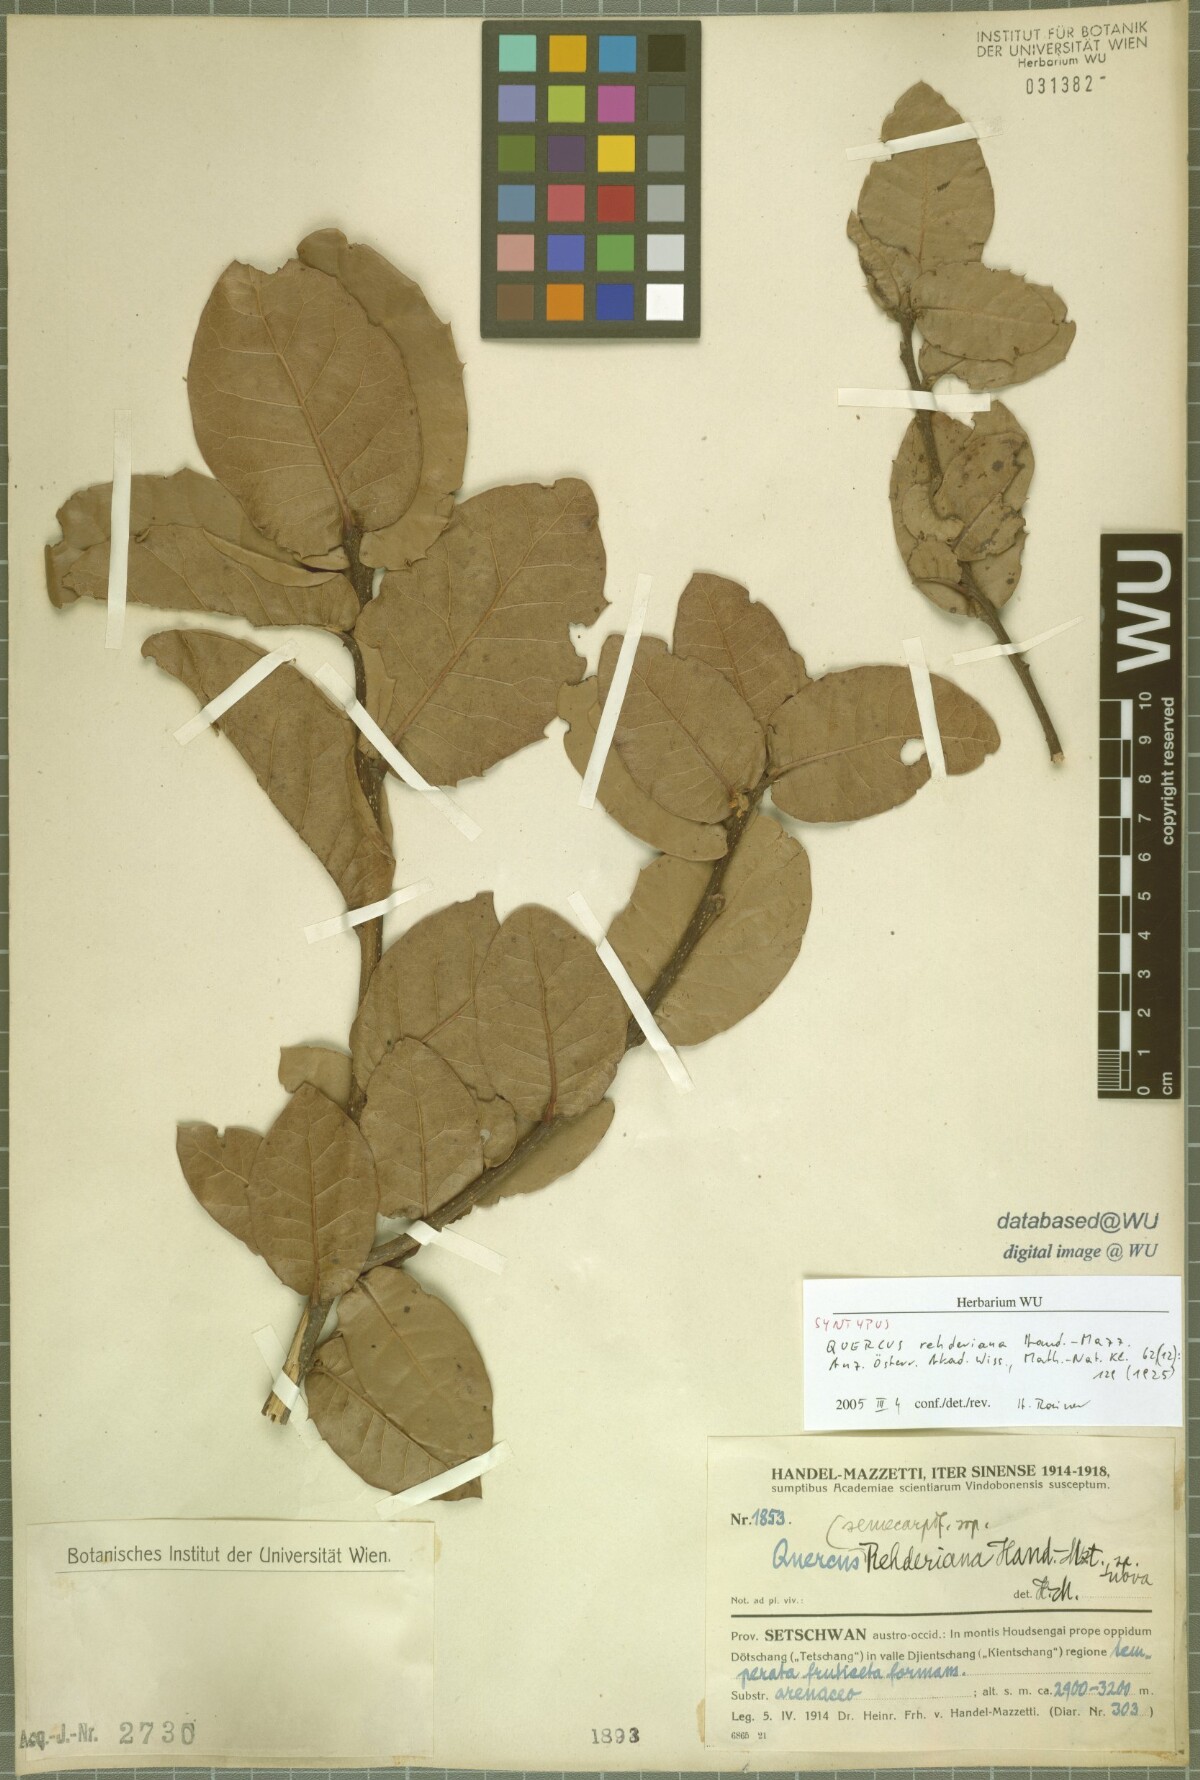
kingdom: Plantae
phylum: Tracheophyta
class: Magnoliopsida
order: Fagales
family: Fagaceae
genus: Quercus
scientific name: Quercus rehderiana
